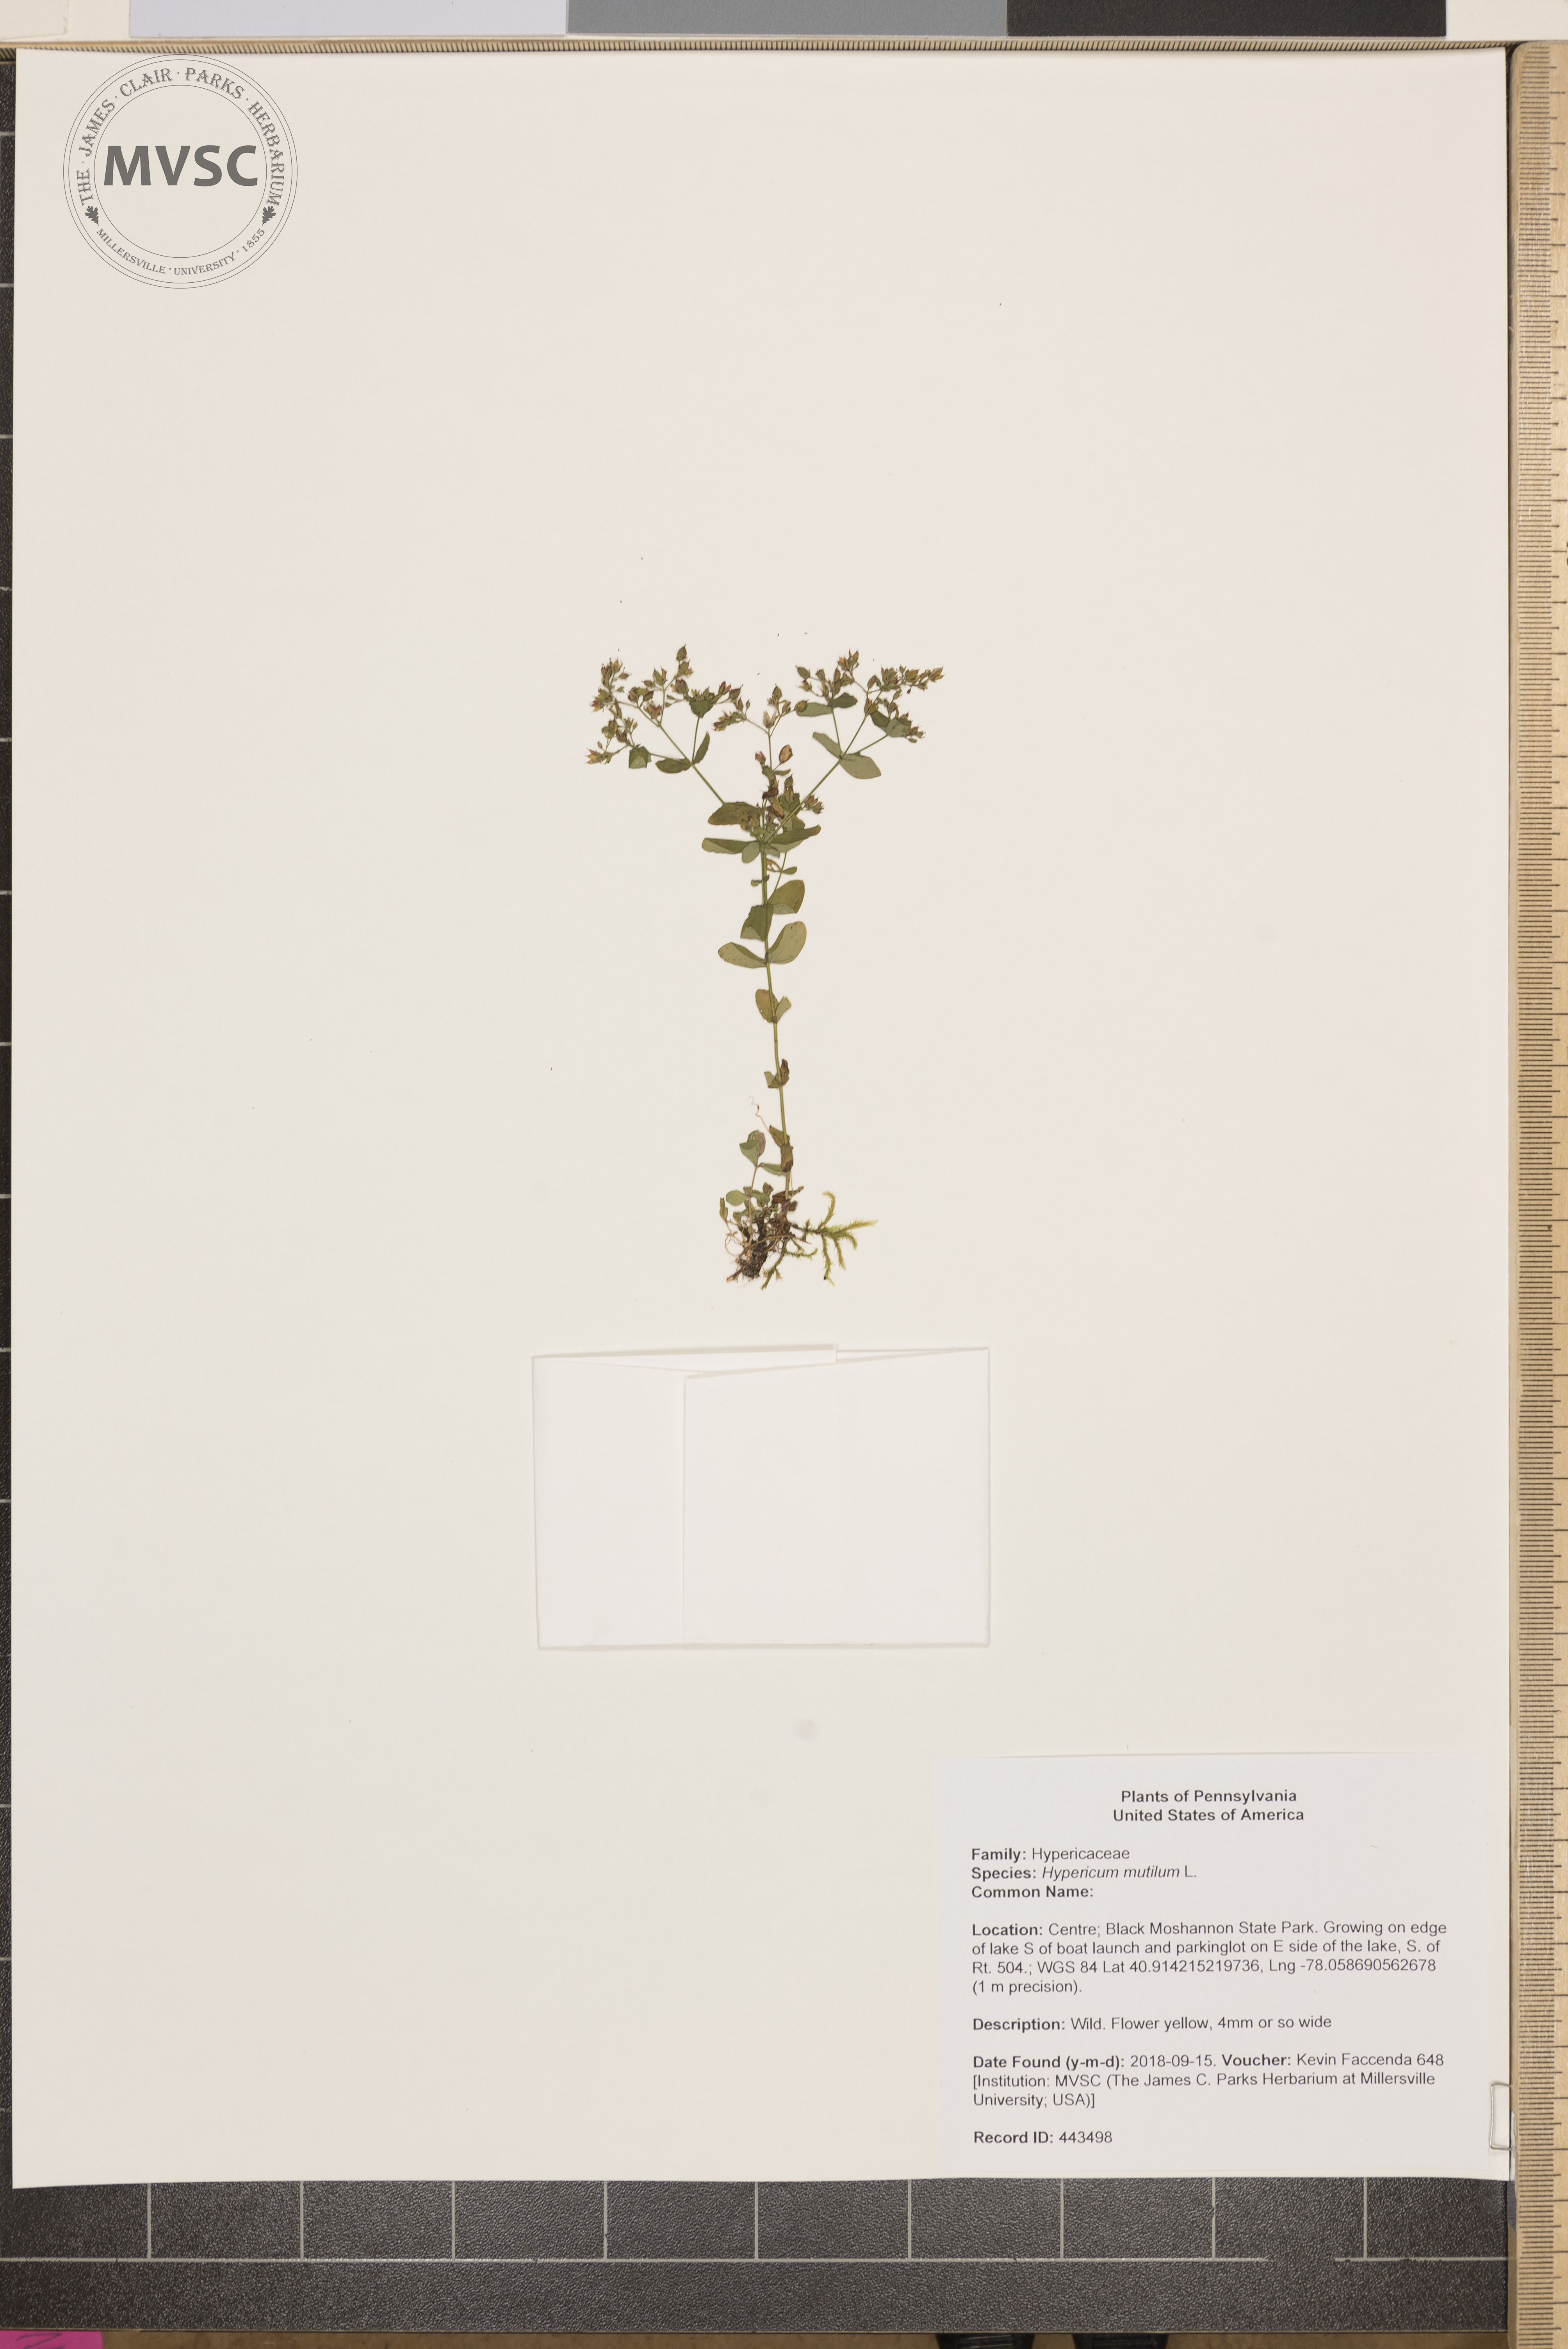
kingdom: Plantae
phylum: Tracheophyta
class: Magnoliopsida
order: Malpighiales
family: Hypericaceae
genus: Hypericum
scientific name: Hypericum mutilum
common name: Dwarf st. john's-wort
